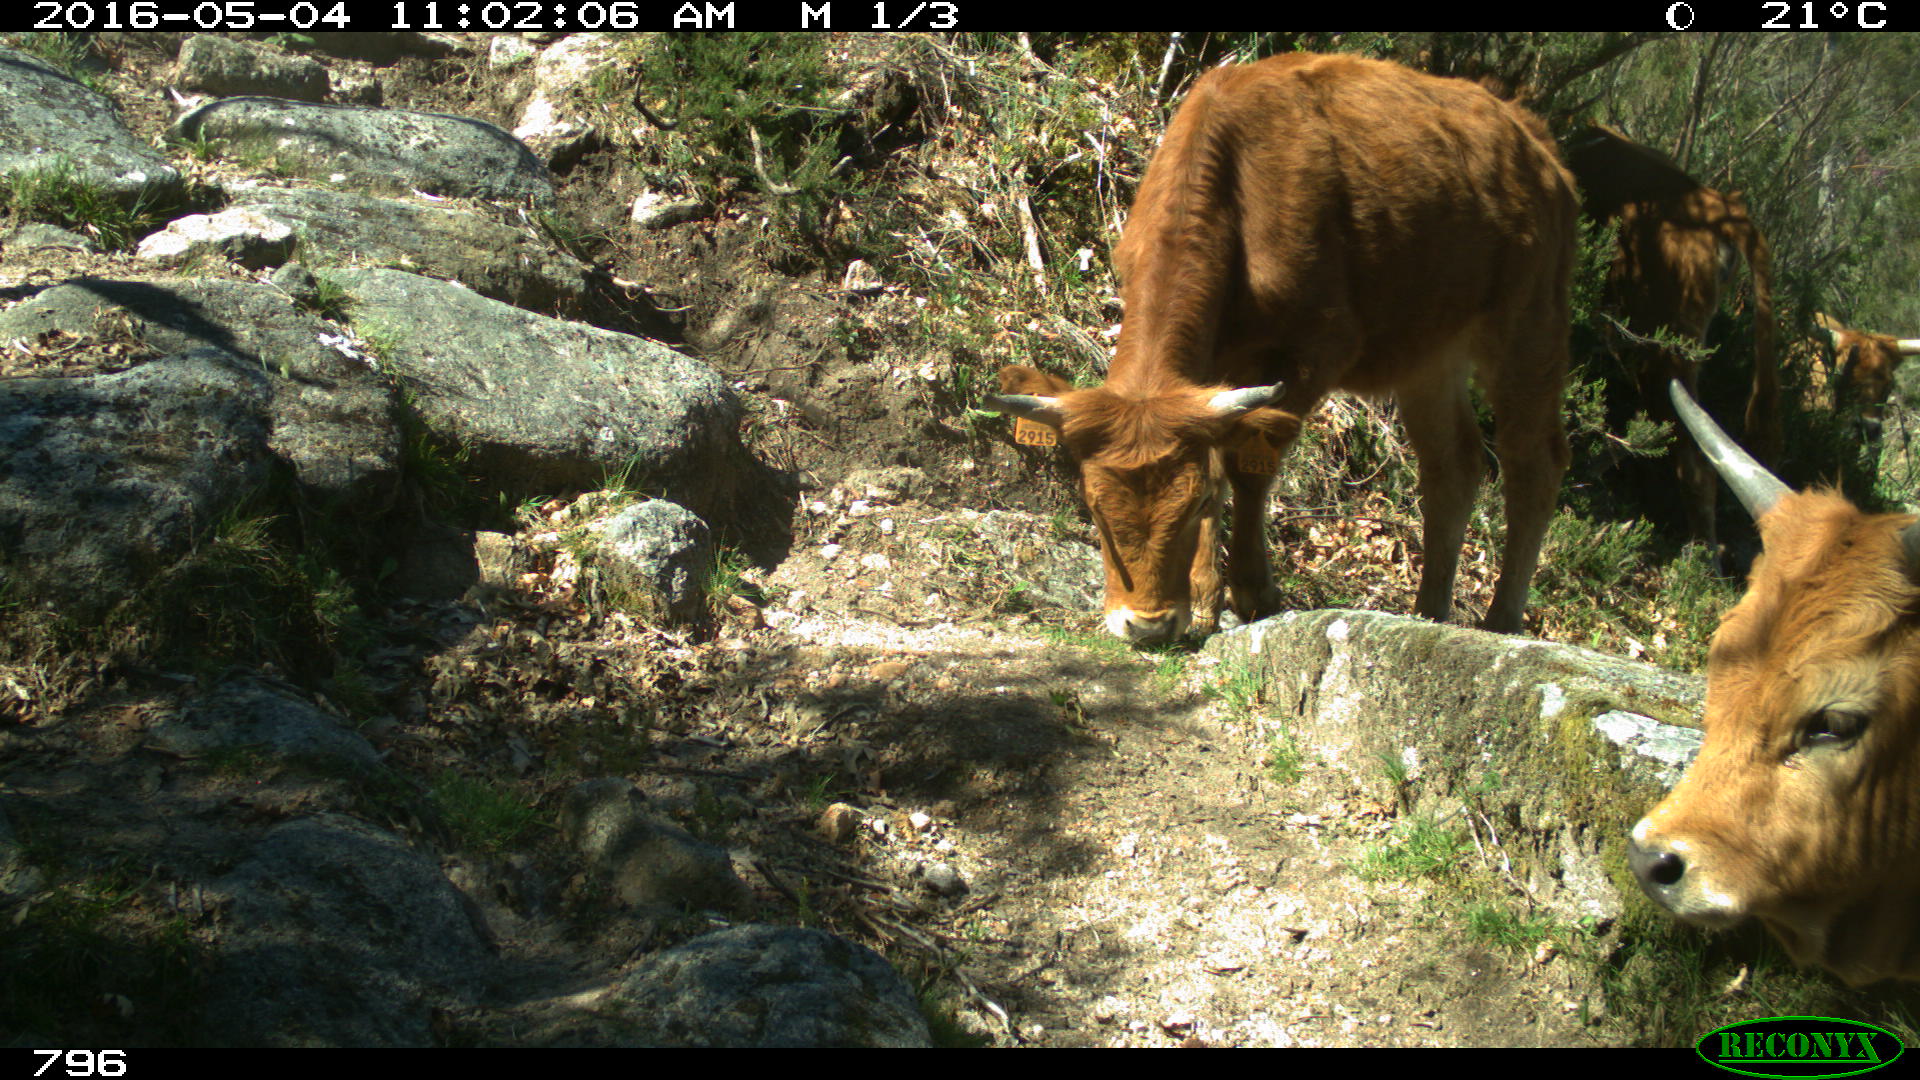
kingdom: Animalia
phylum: Chordata
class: Mammalia
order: Artiodactyla
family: Bovidae
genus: Bos
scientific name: Bos taurus
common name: Domesticated cattle
